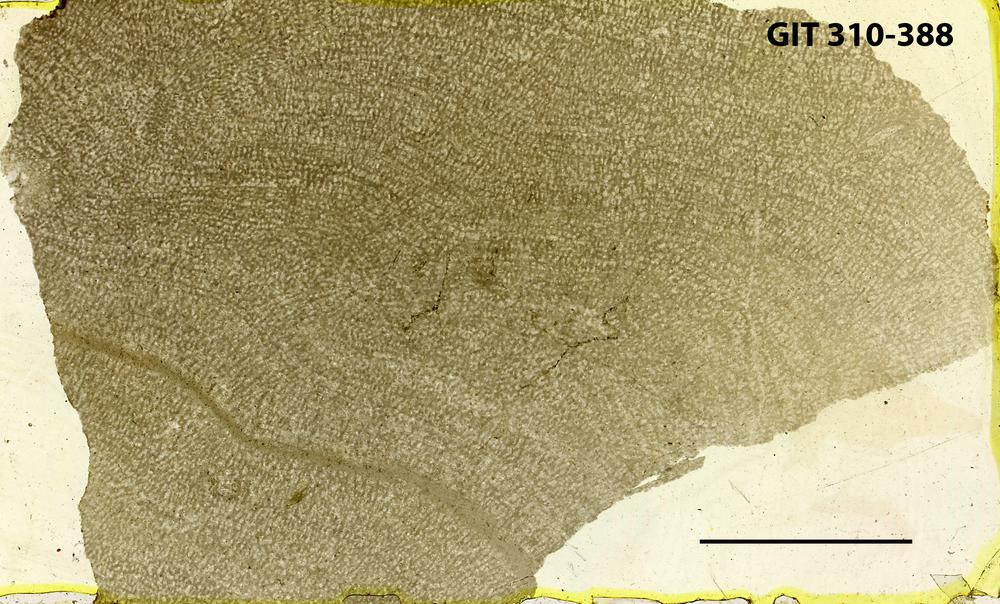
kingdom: Animalia
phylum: Porifera
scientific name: Porifera
